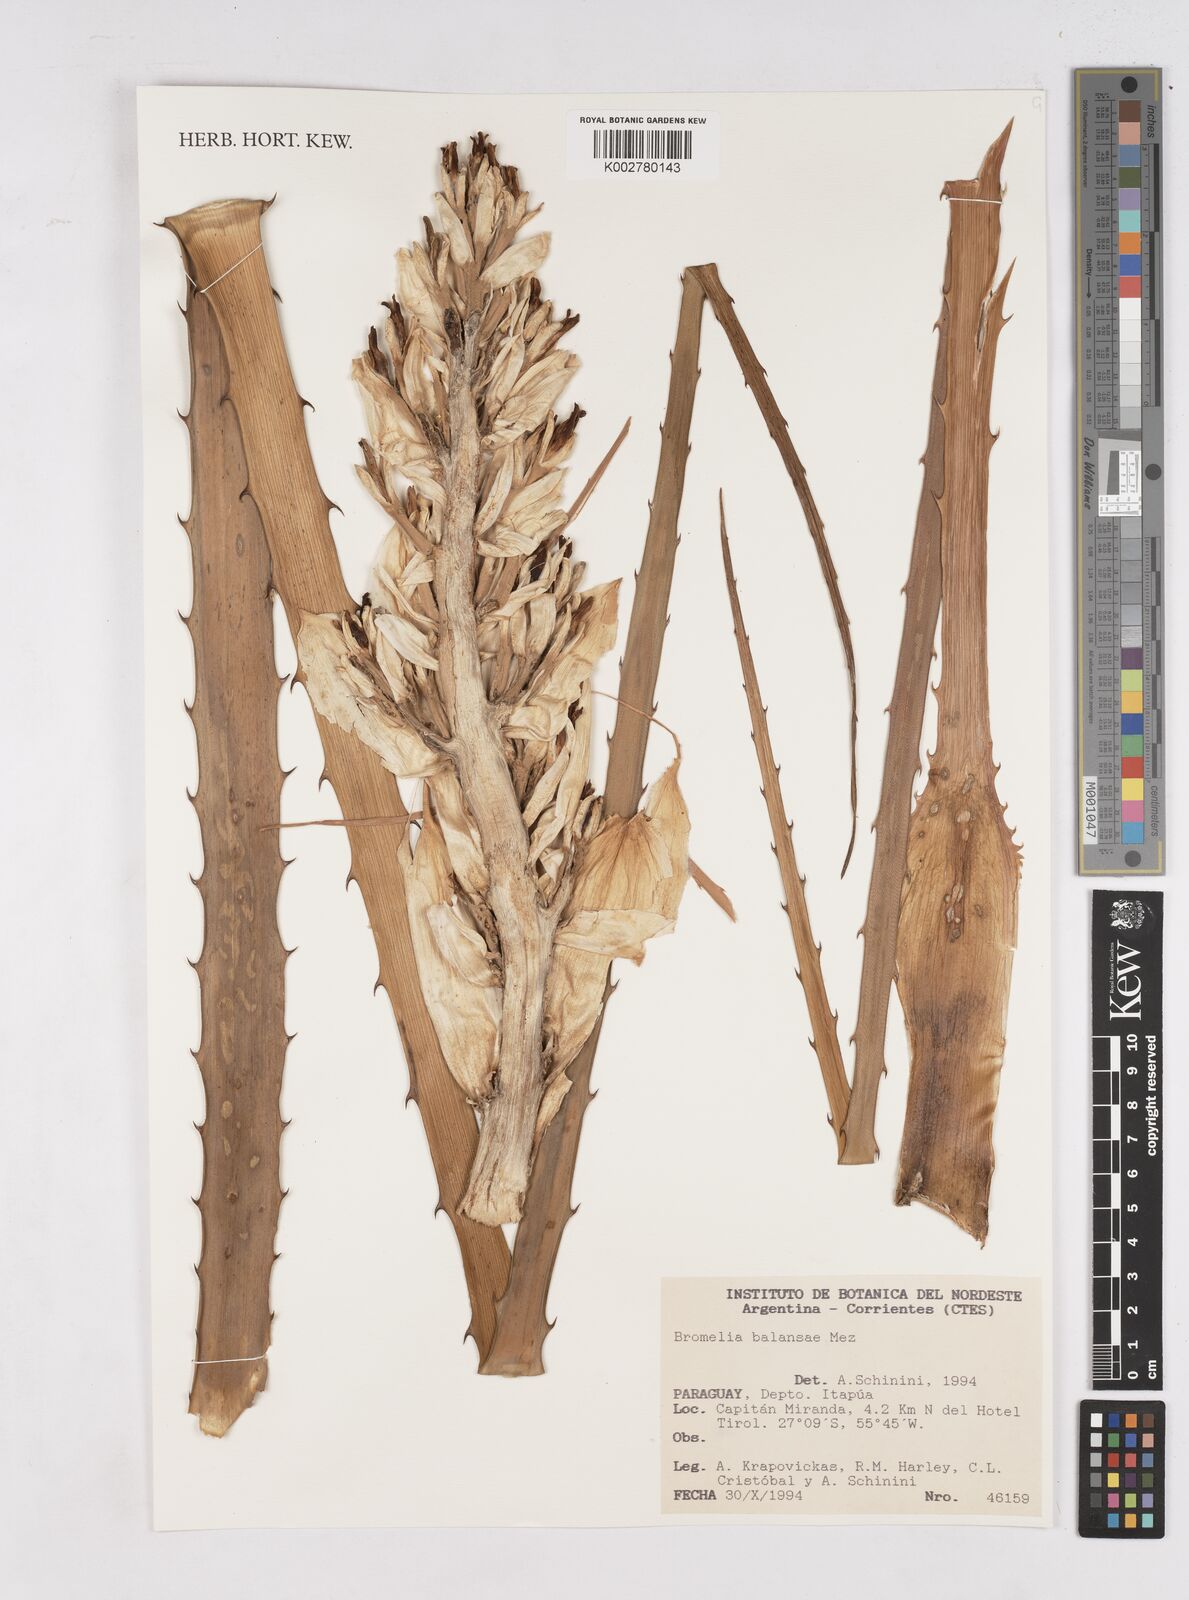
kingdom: Plantae
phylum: Tracheophyta
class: Liliopsida
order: Poales
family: Bromeliaceae
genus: Bromelia
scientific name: Bromelia balansae
